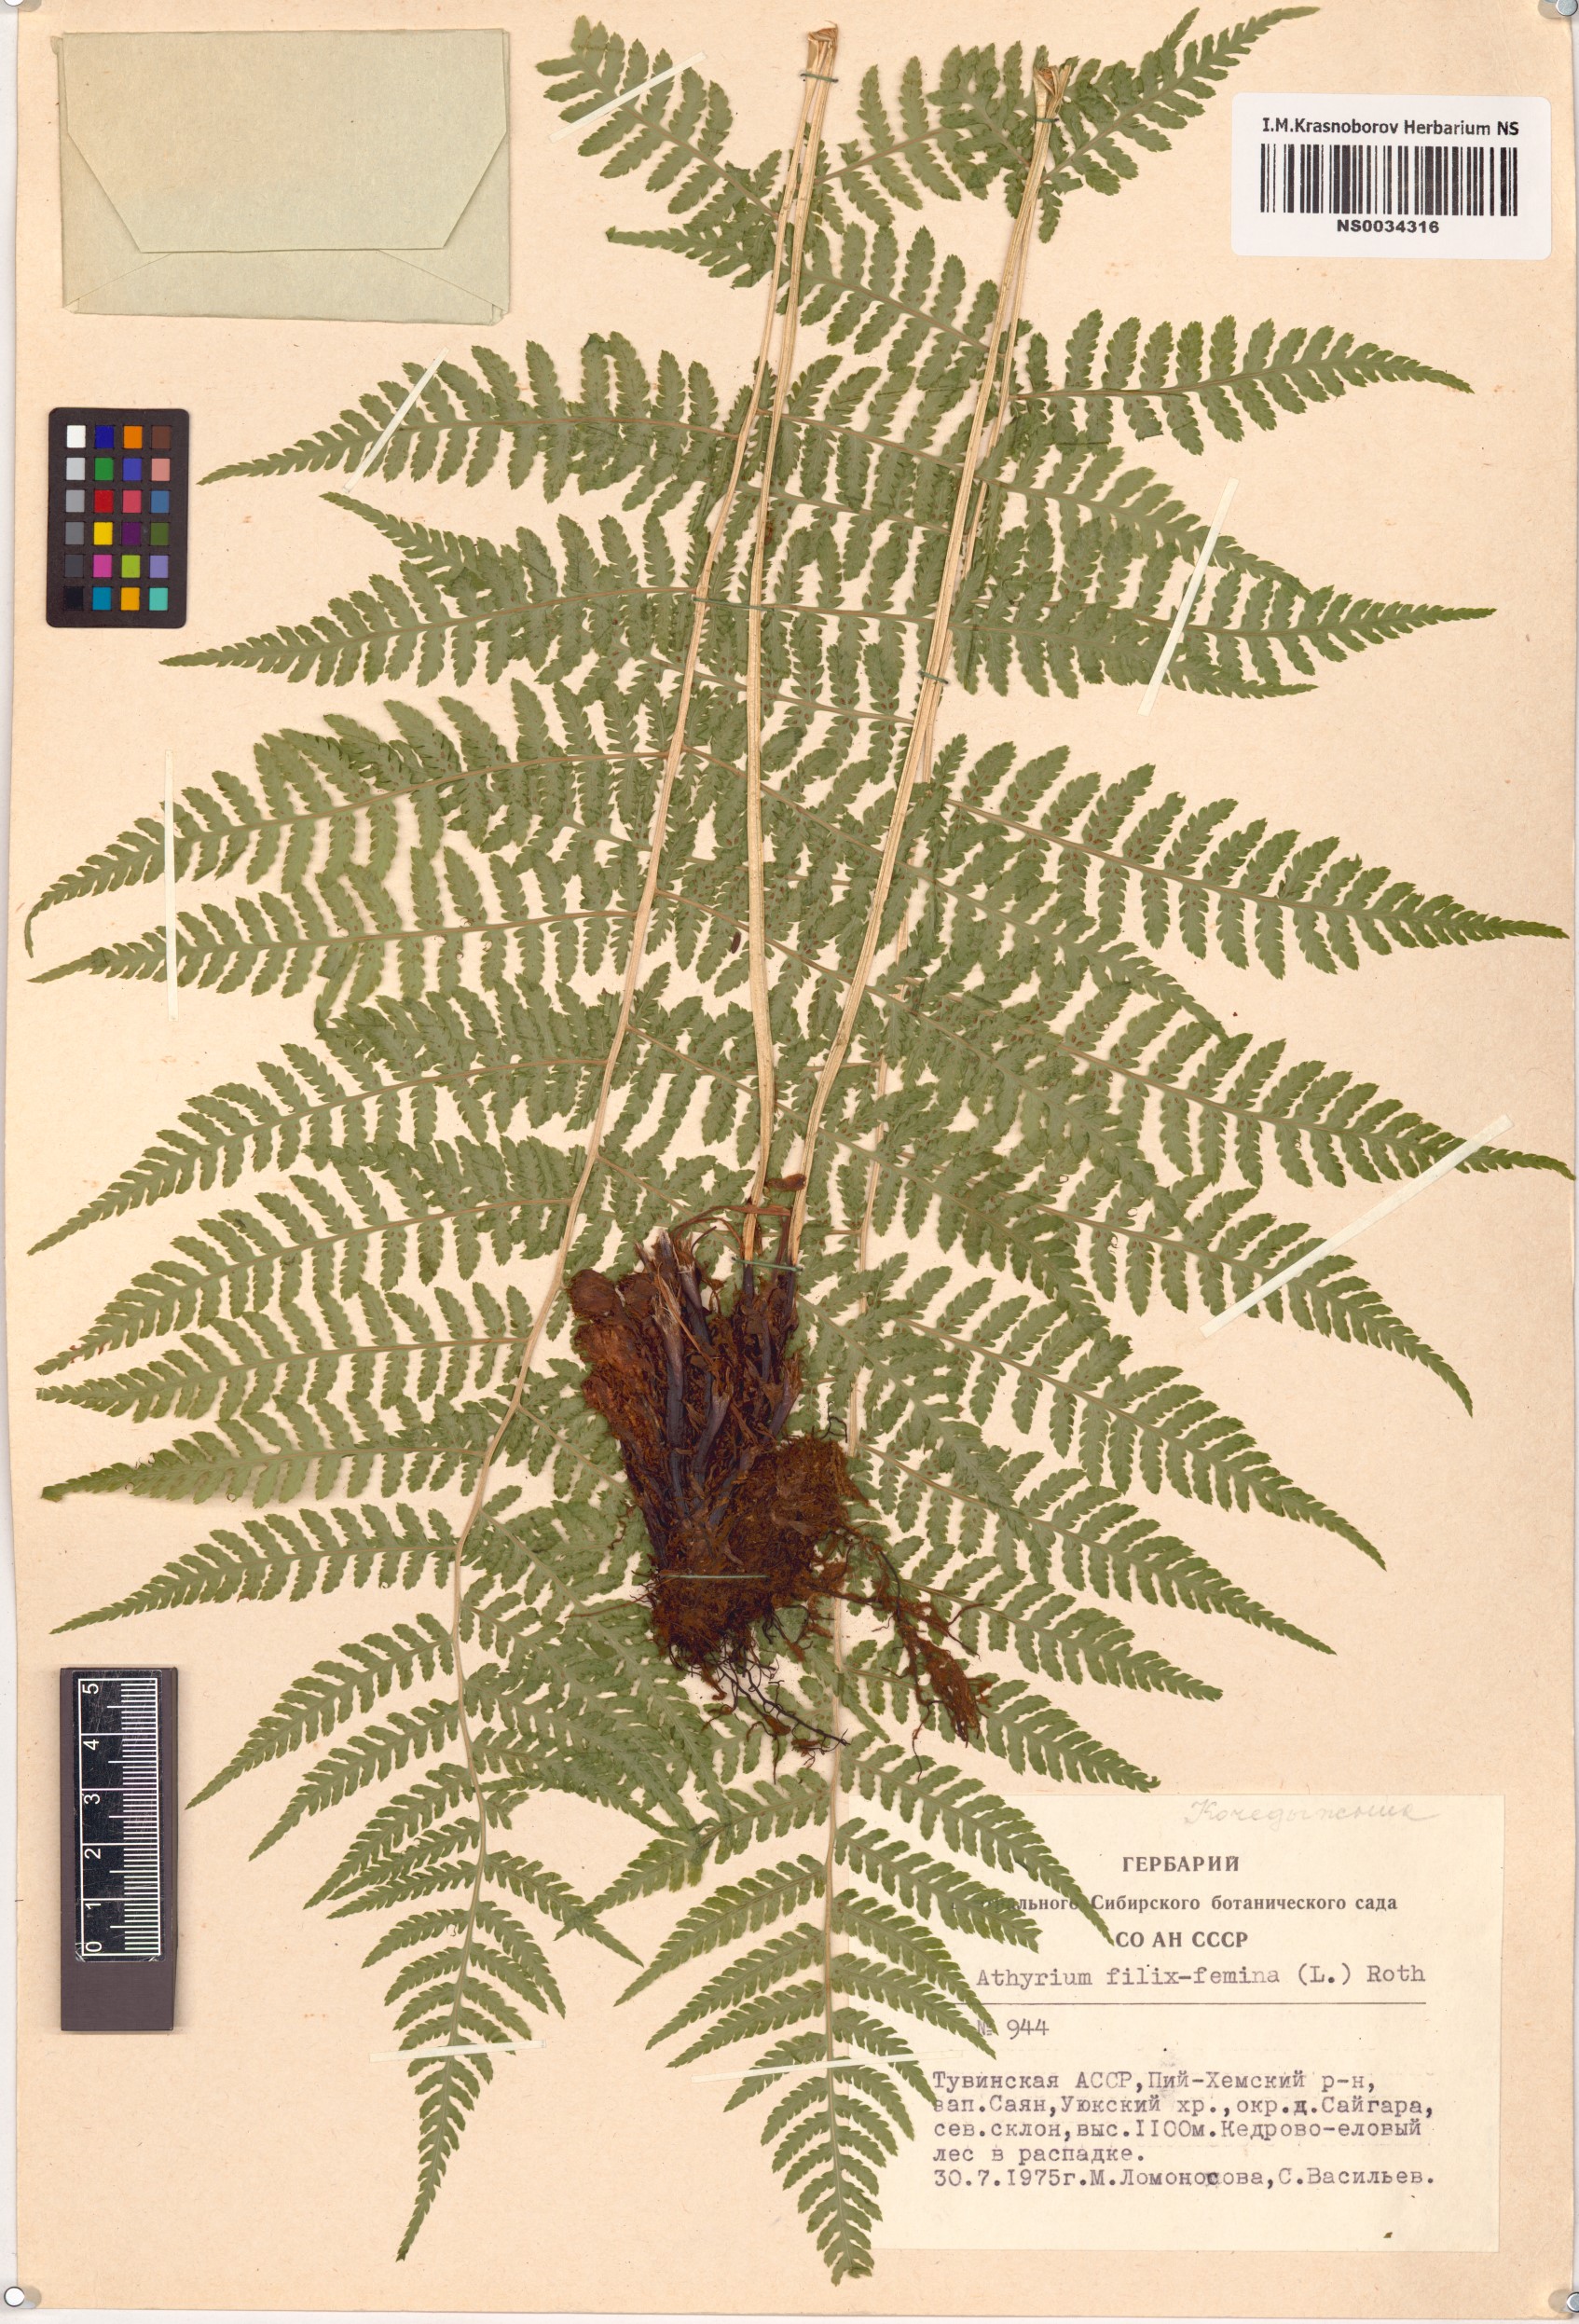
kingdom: Plantae
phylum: Tracheophyta
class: Polypodiopsida
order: Polypodiales
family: Athyriaceae
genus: Athyrium
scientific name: Athyrium filix-femina
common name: Lady fern
